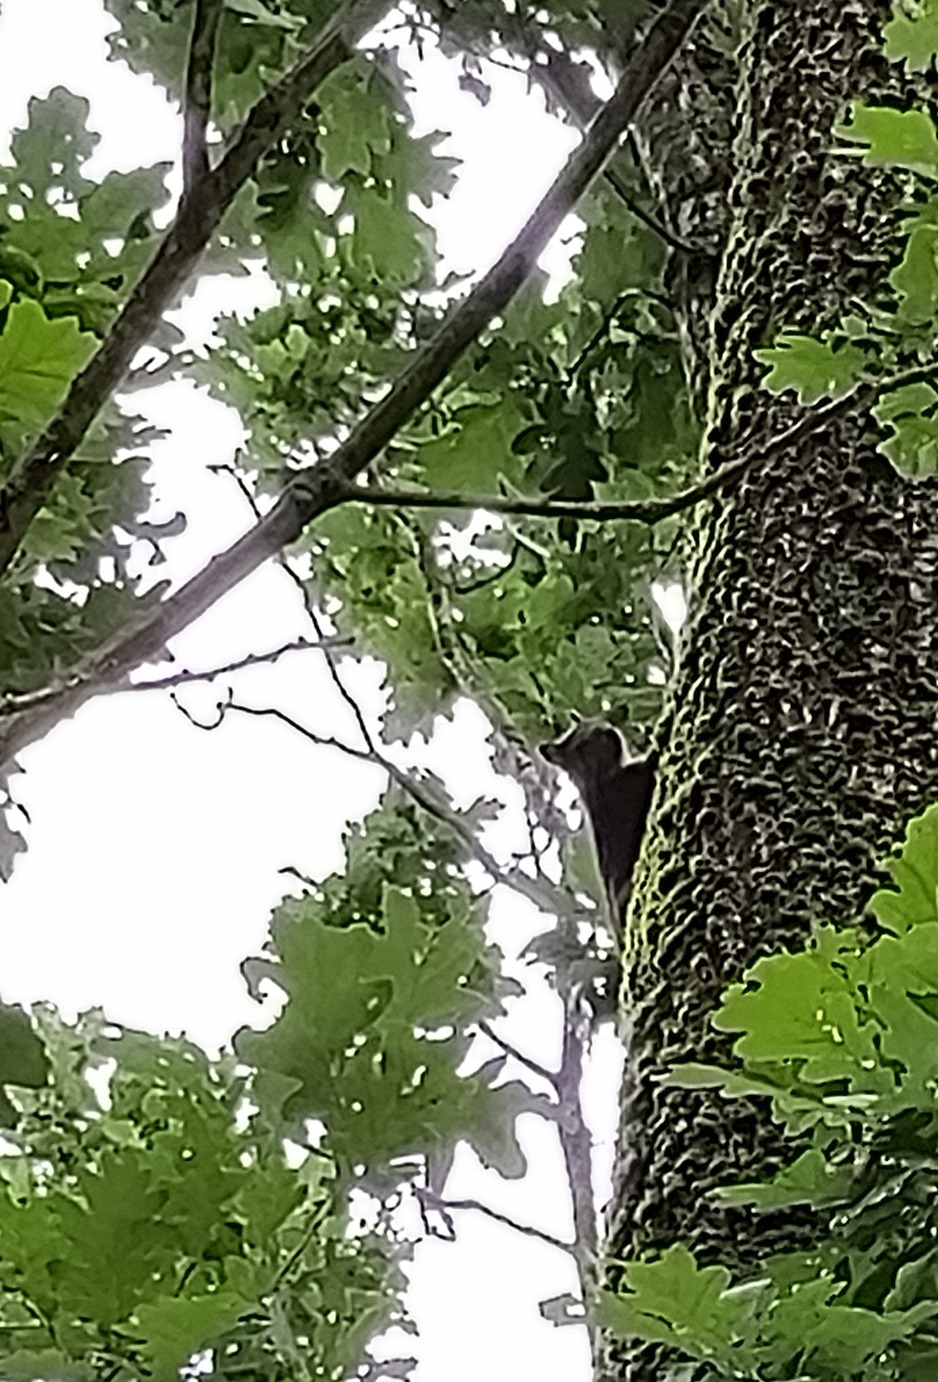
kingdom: Animalia
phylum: Chordata
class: Mammalia
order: Rodentia
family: Sciuridae
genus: Sciurus
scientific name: Sciurus vulgaris
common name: Egern
